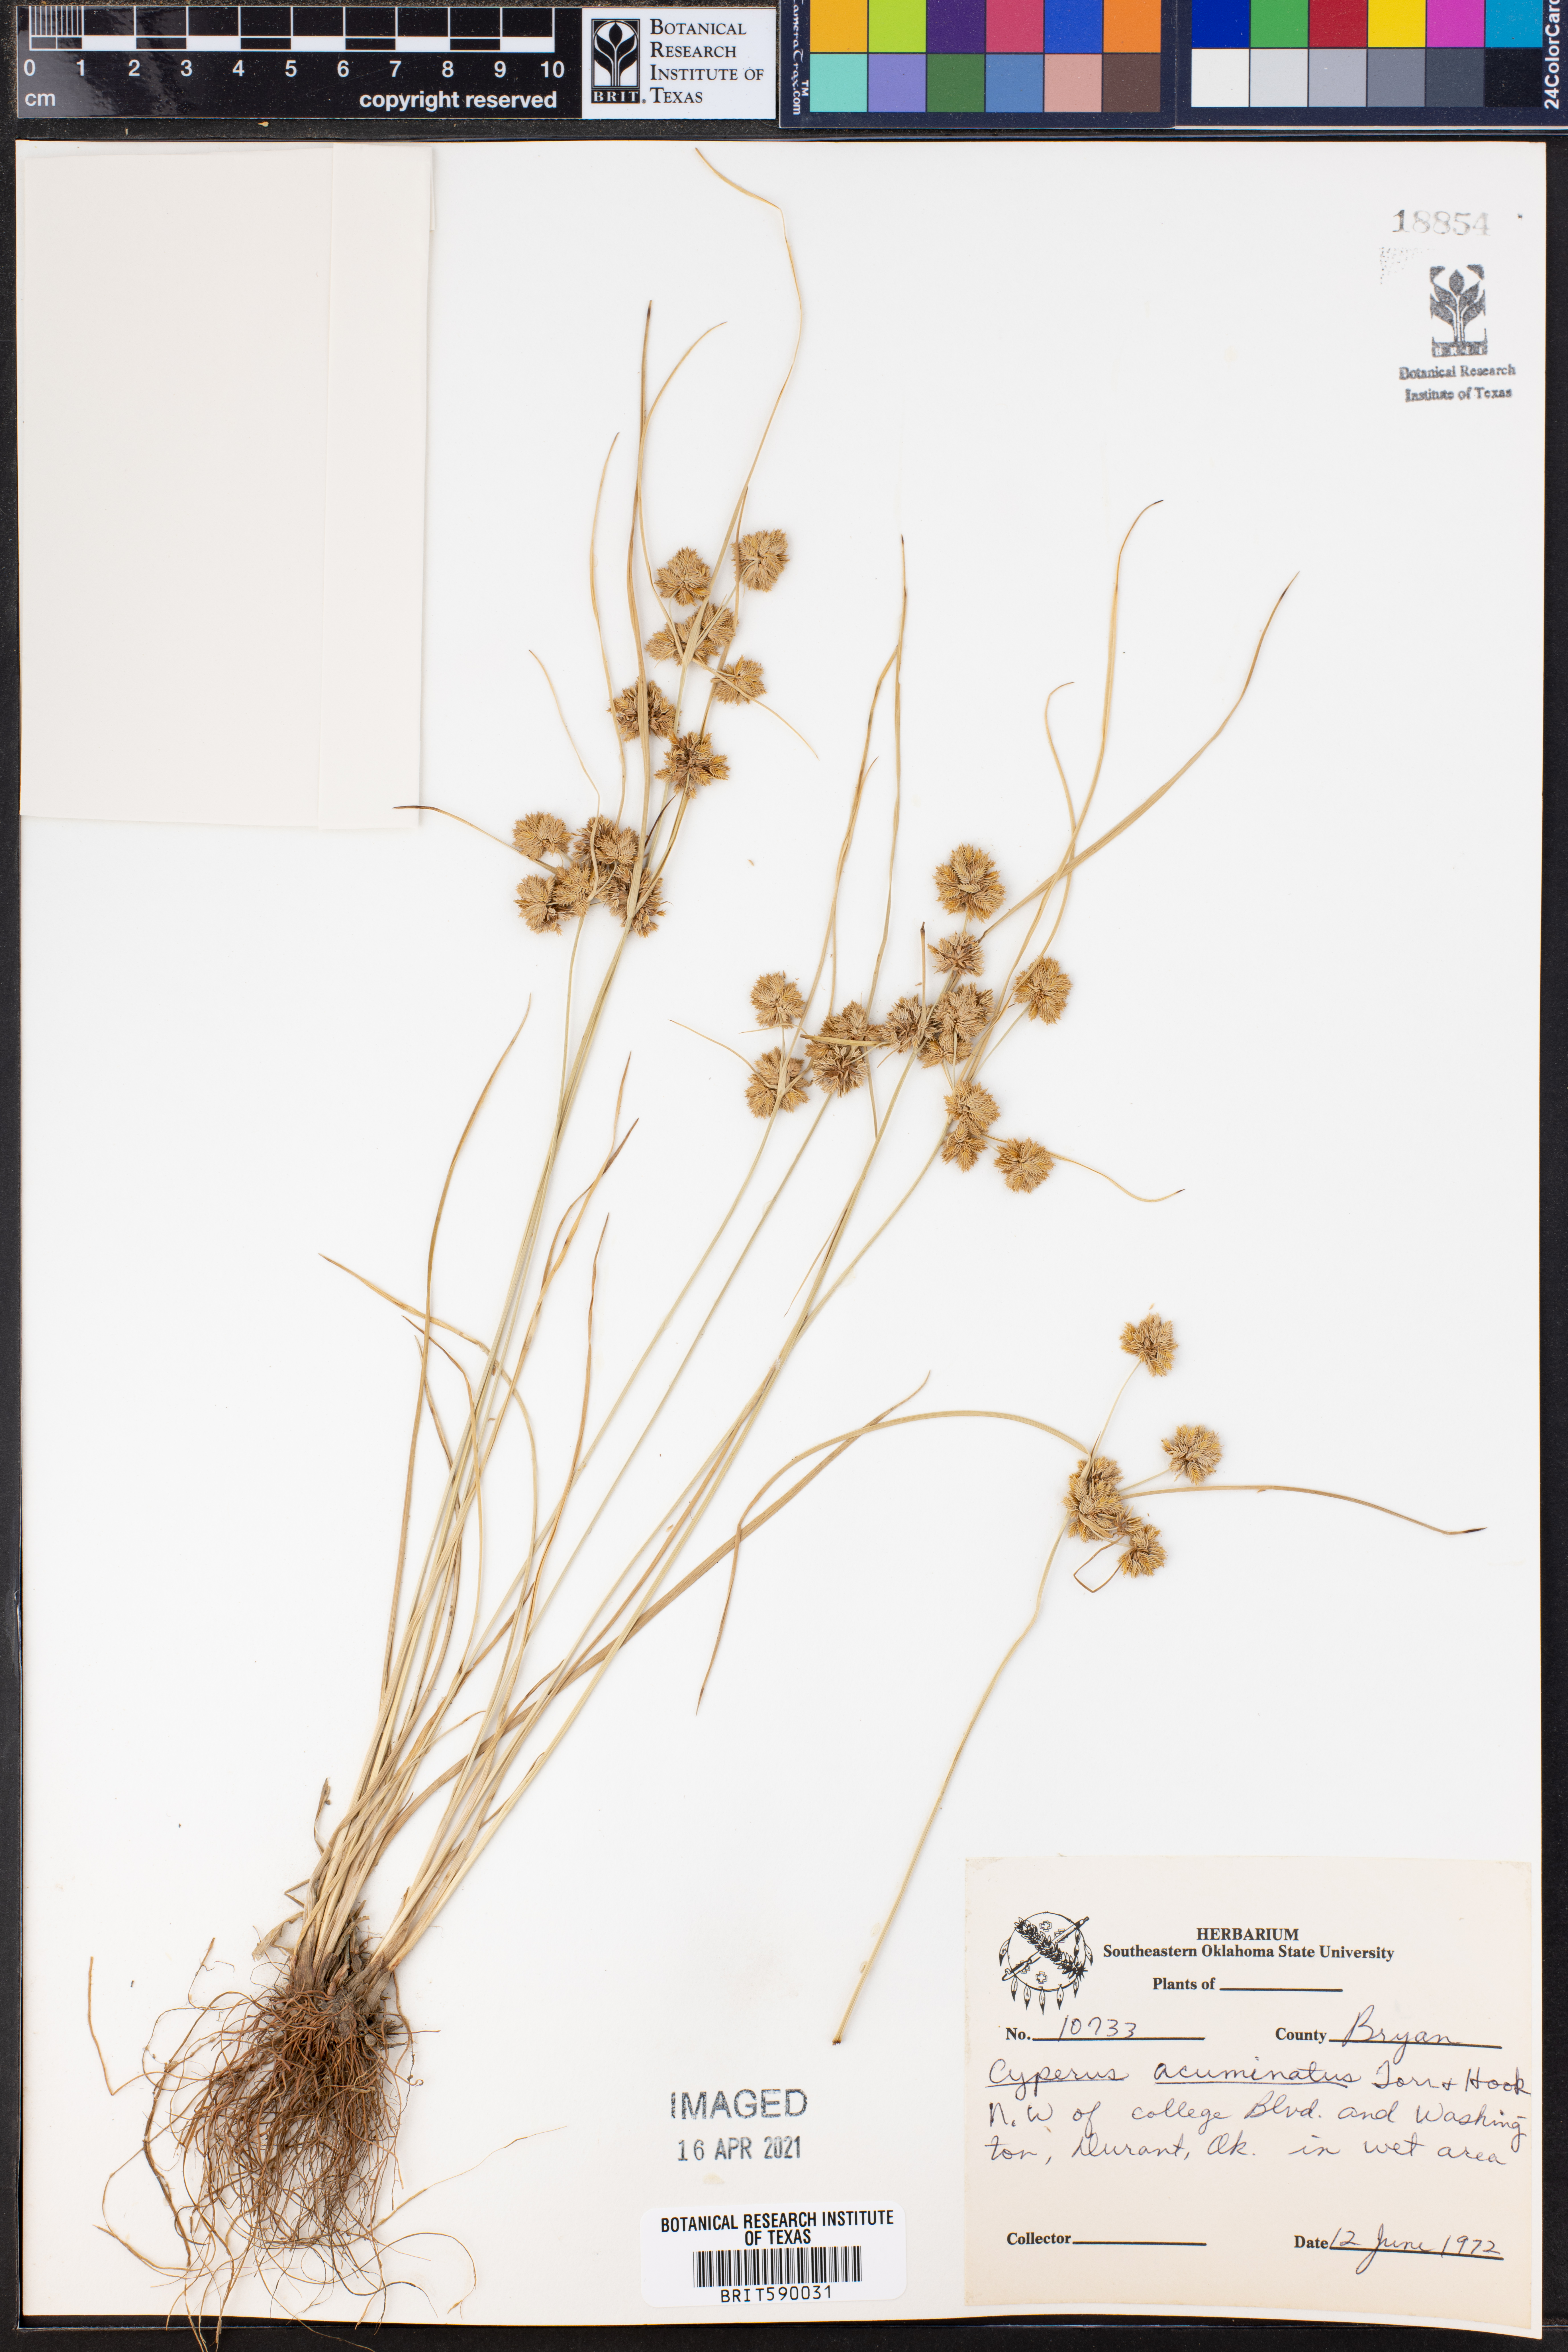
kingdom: Plantae
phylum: Tracheophyta
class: Liliopsida
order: Poales
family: Cyperaceae
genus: Cyperus
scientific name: Cyperus acuminatus
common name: Short-pointed cyperus
